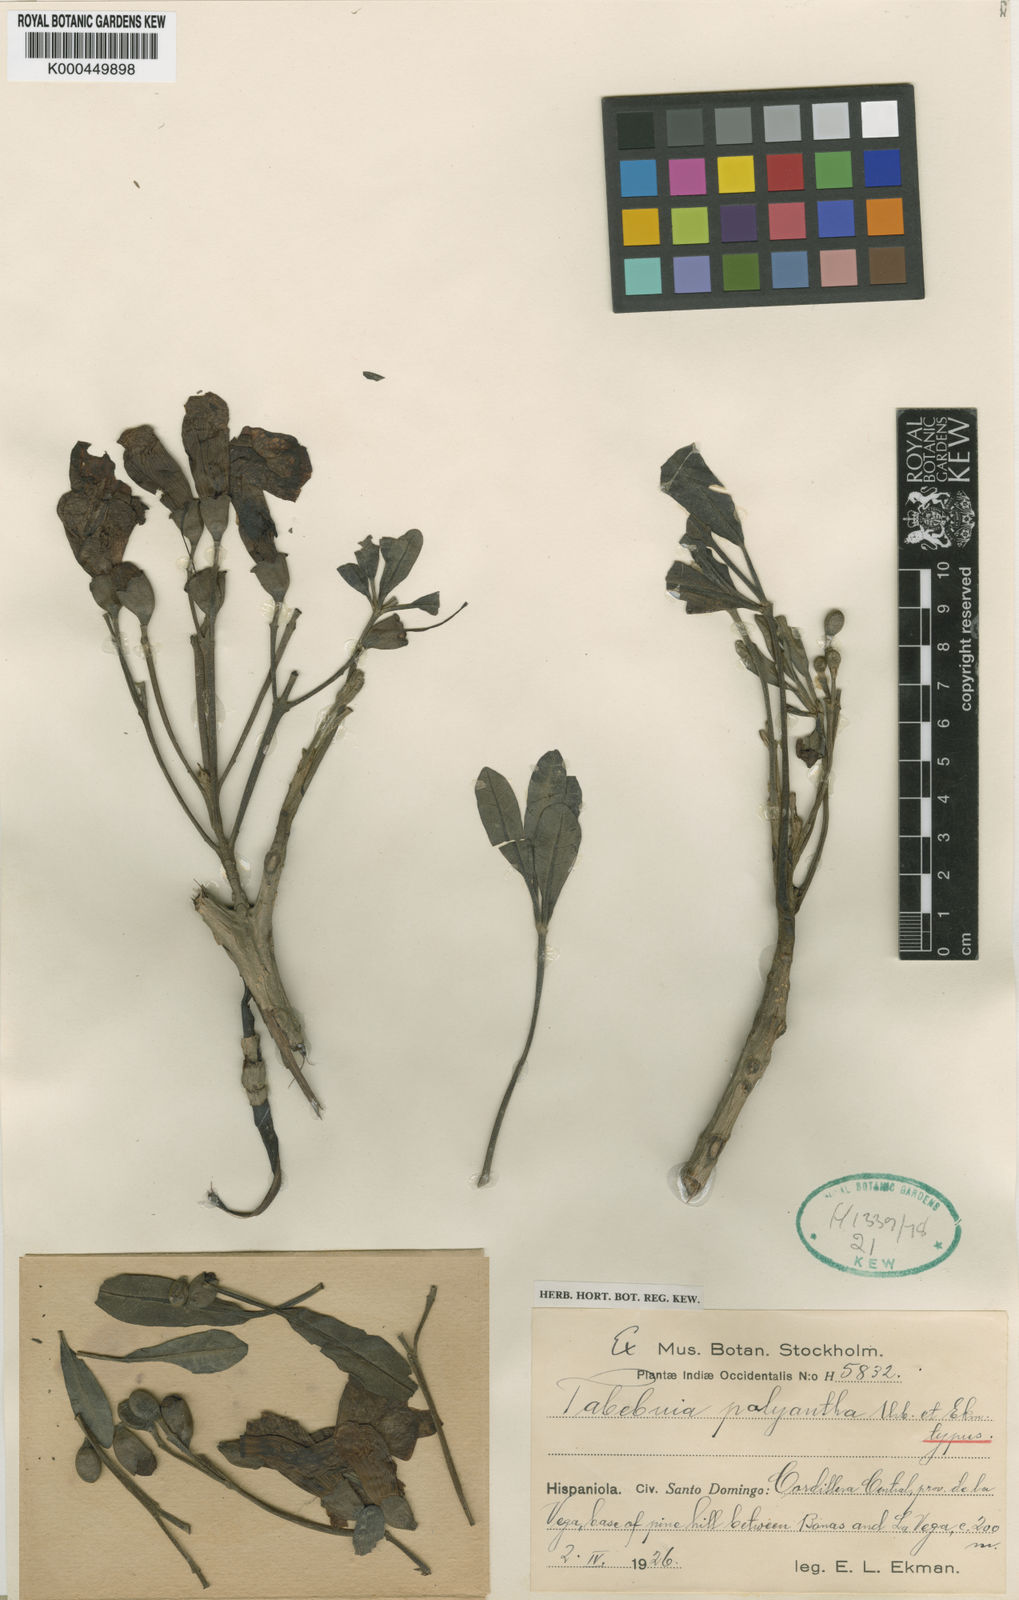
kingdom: Plantae
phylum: Tracheophyta
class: Magnoliopsida
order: Lamiales
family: Bignoniaceae
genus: Tabebuia
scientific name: Tabebuia polyantha
